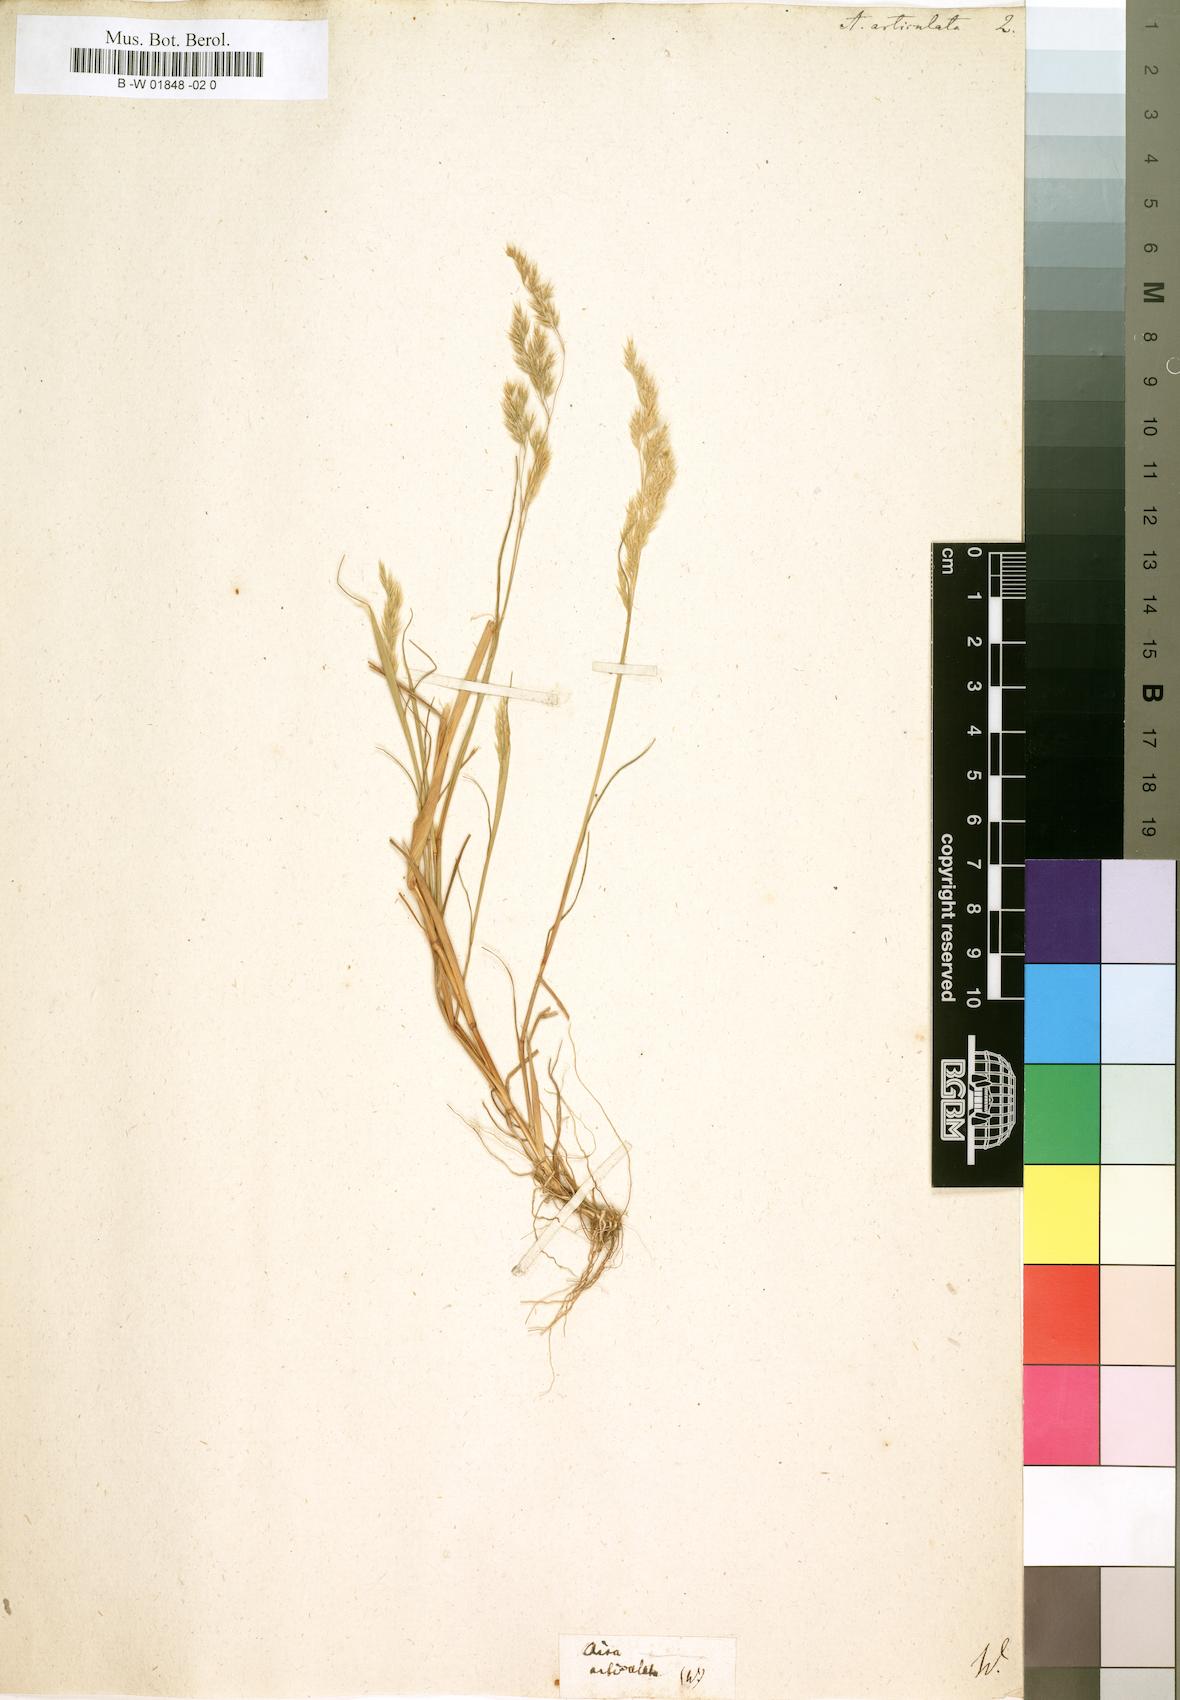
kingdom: Plantae
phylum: Tracheophyta
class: Liliopsida
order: Poales
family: Poaceae
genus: Corynephorus
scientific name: Corynephorus articulatus
